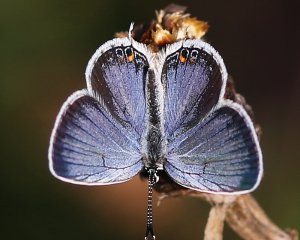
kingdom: Animalia
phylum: Arthropoda
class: Insecta
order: Lepidoptera
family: Lycaenidae
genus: Elkalyce
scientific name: Elkalyce comyntas
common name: Eastern Tailed-Blue
